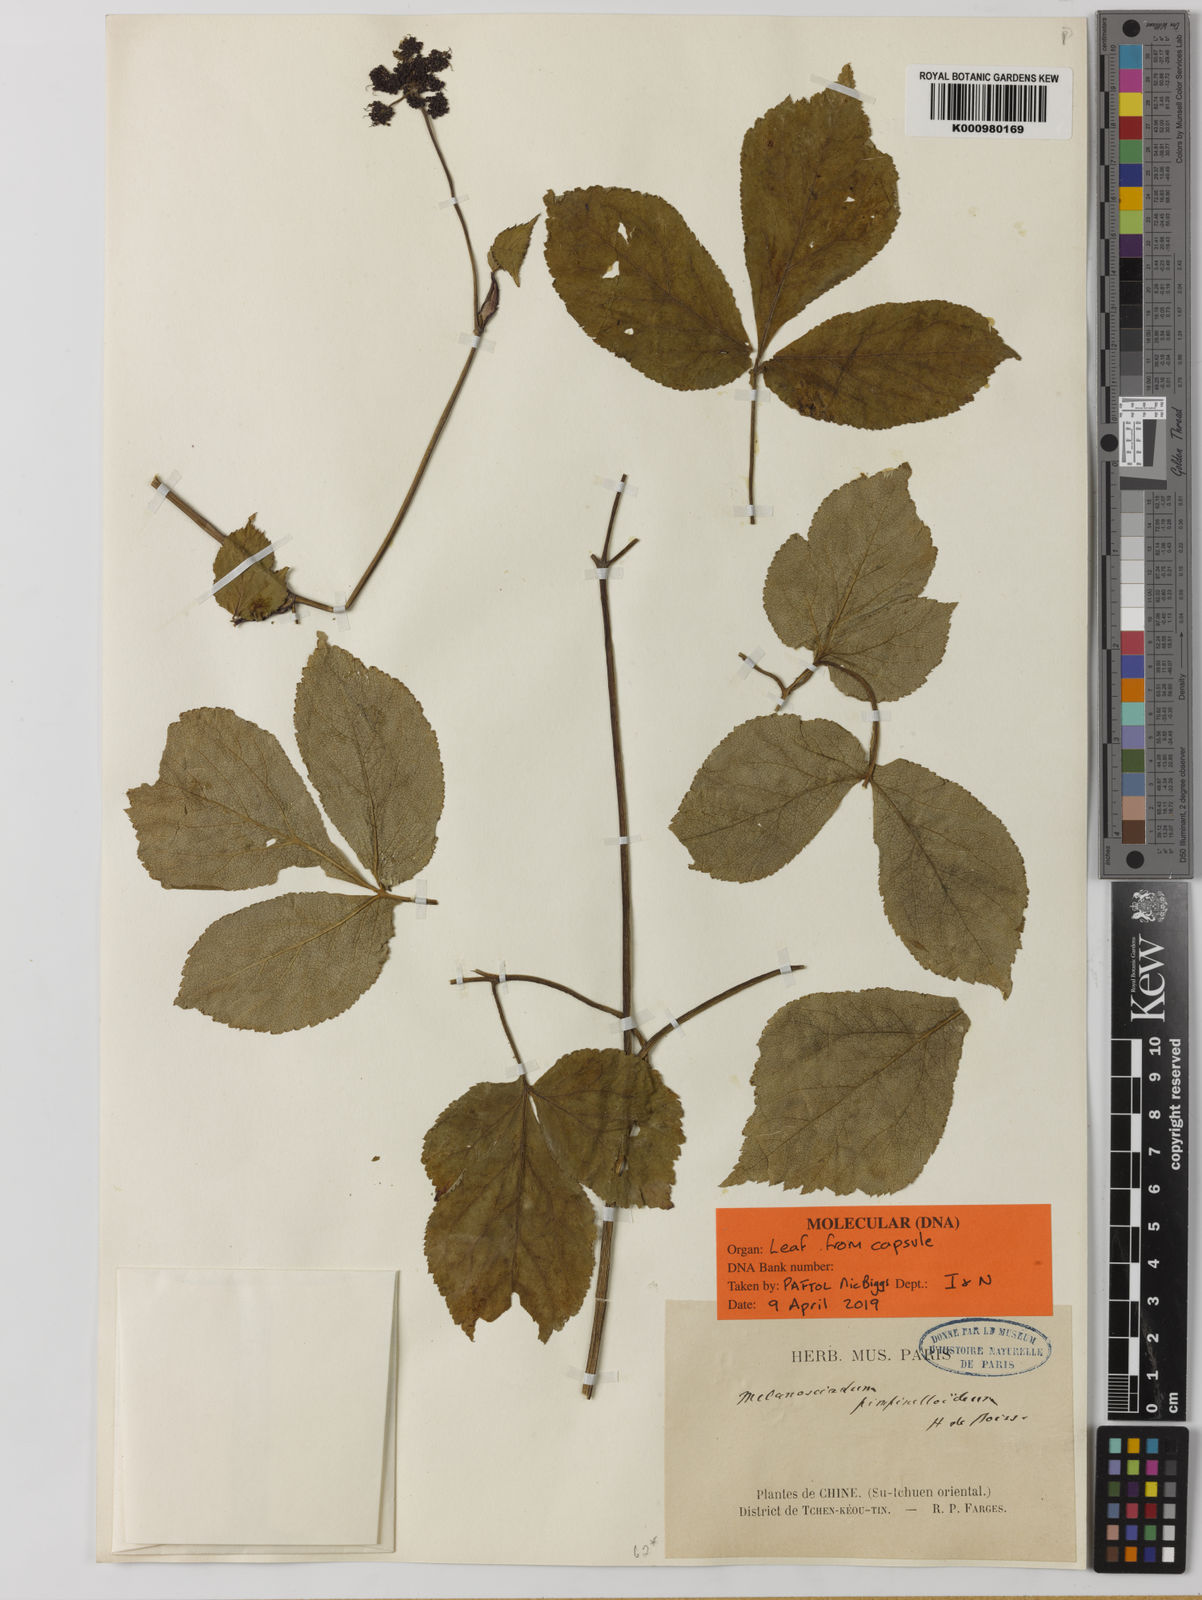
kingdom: Plantae
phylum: Tracheophyta
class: Magnoliopsida
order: Apiales
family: Apiaceae
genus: Melanosciadium
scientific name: Melanosciadium pimpinelloideum
